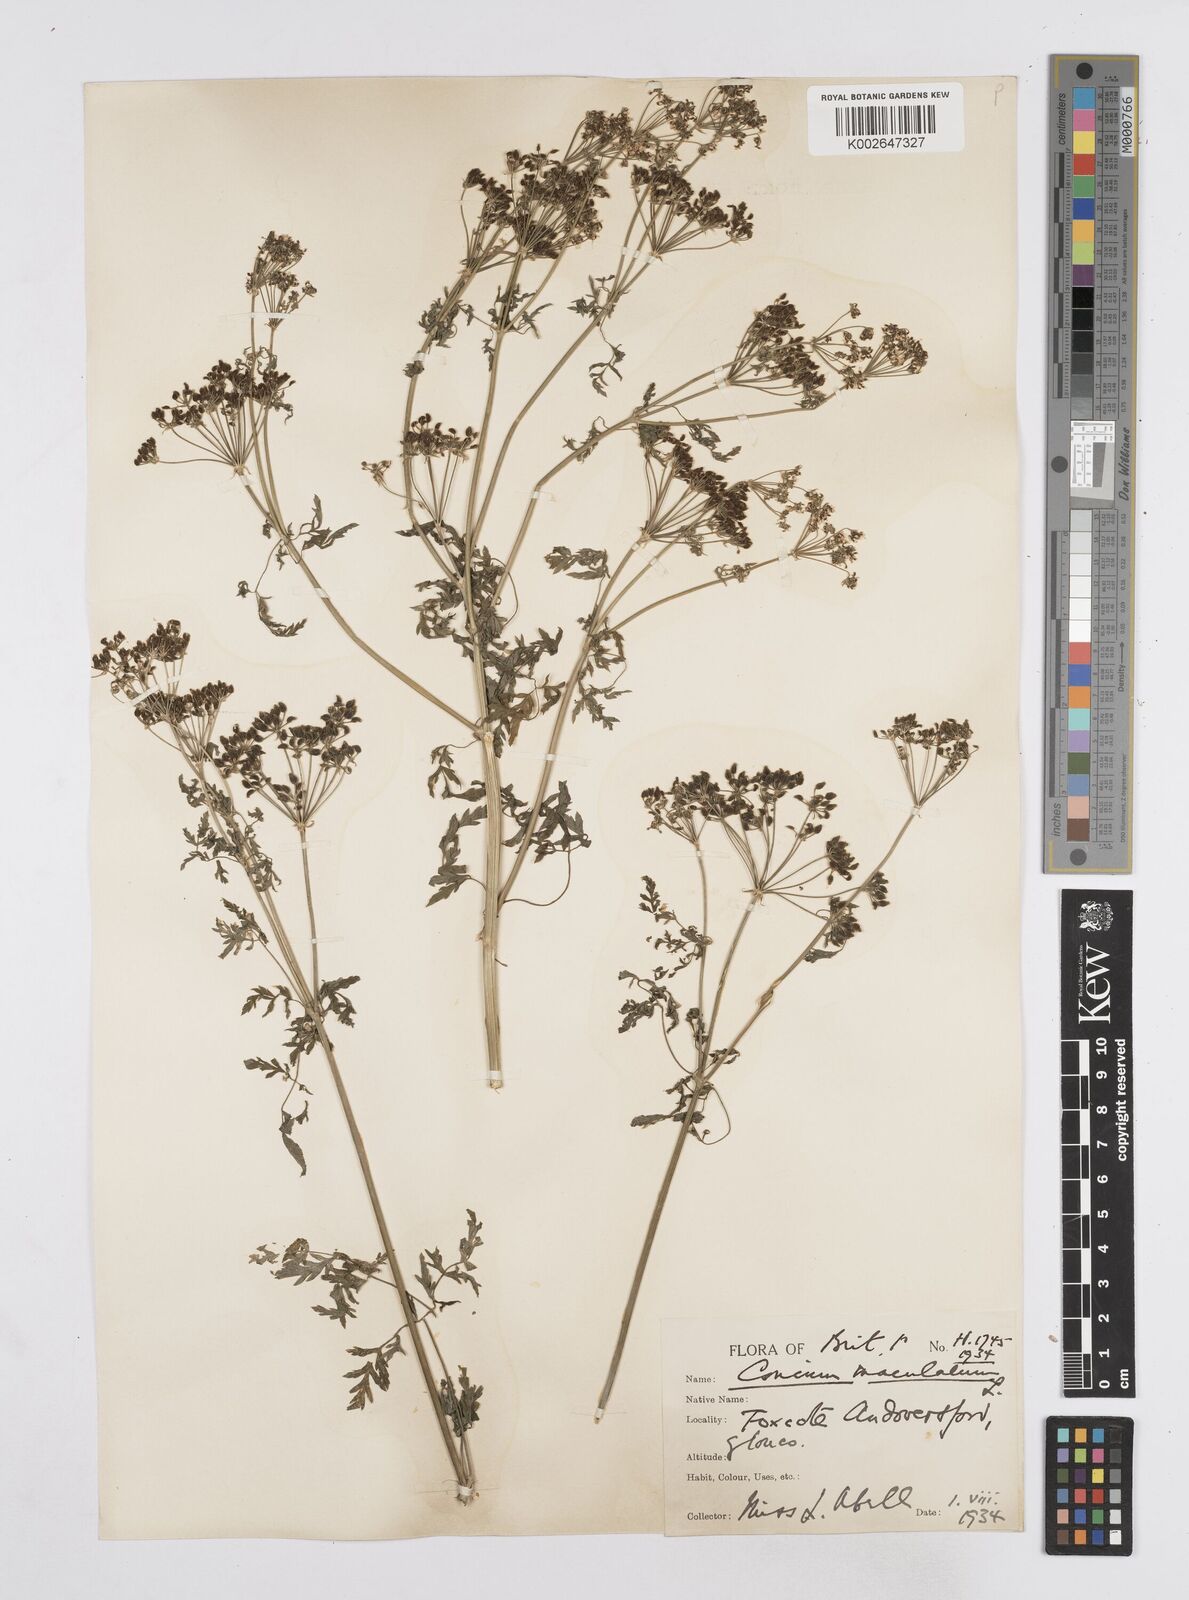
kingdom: Plantae
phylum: Tracheophyta
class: Magnoliopsida
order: Apiales
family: Apiaceae
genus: Conium
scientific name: Conium maculatum
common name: Hemlock
